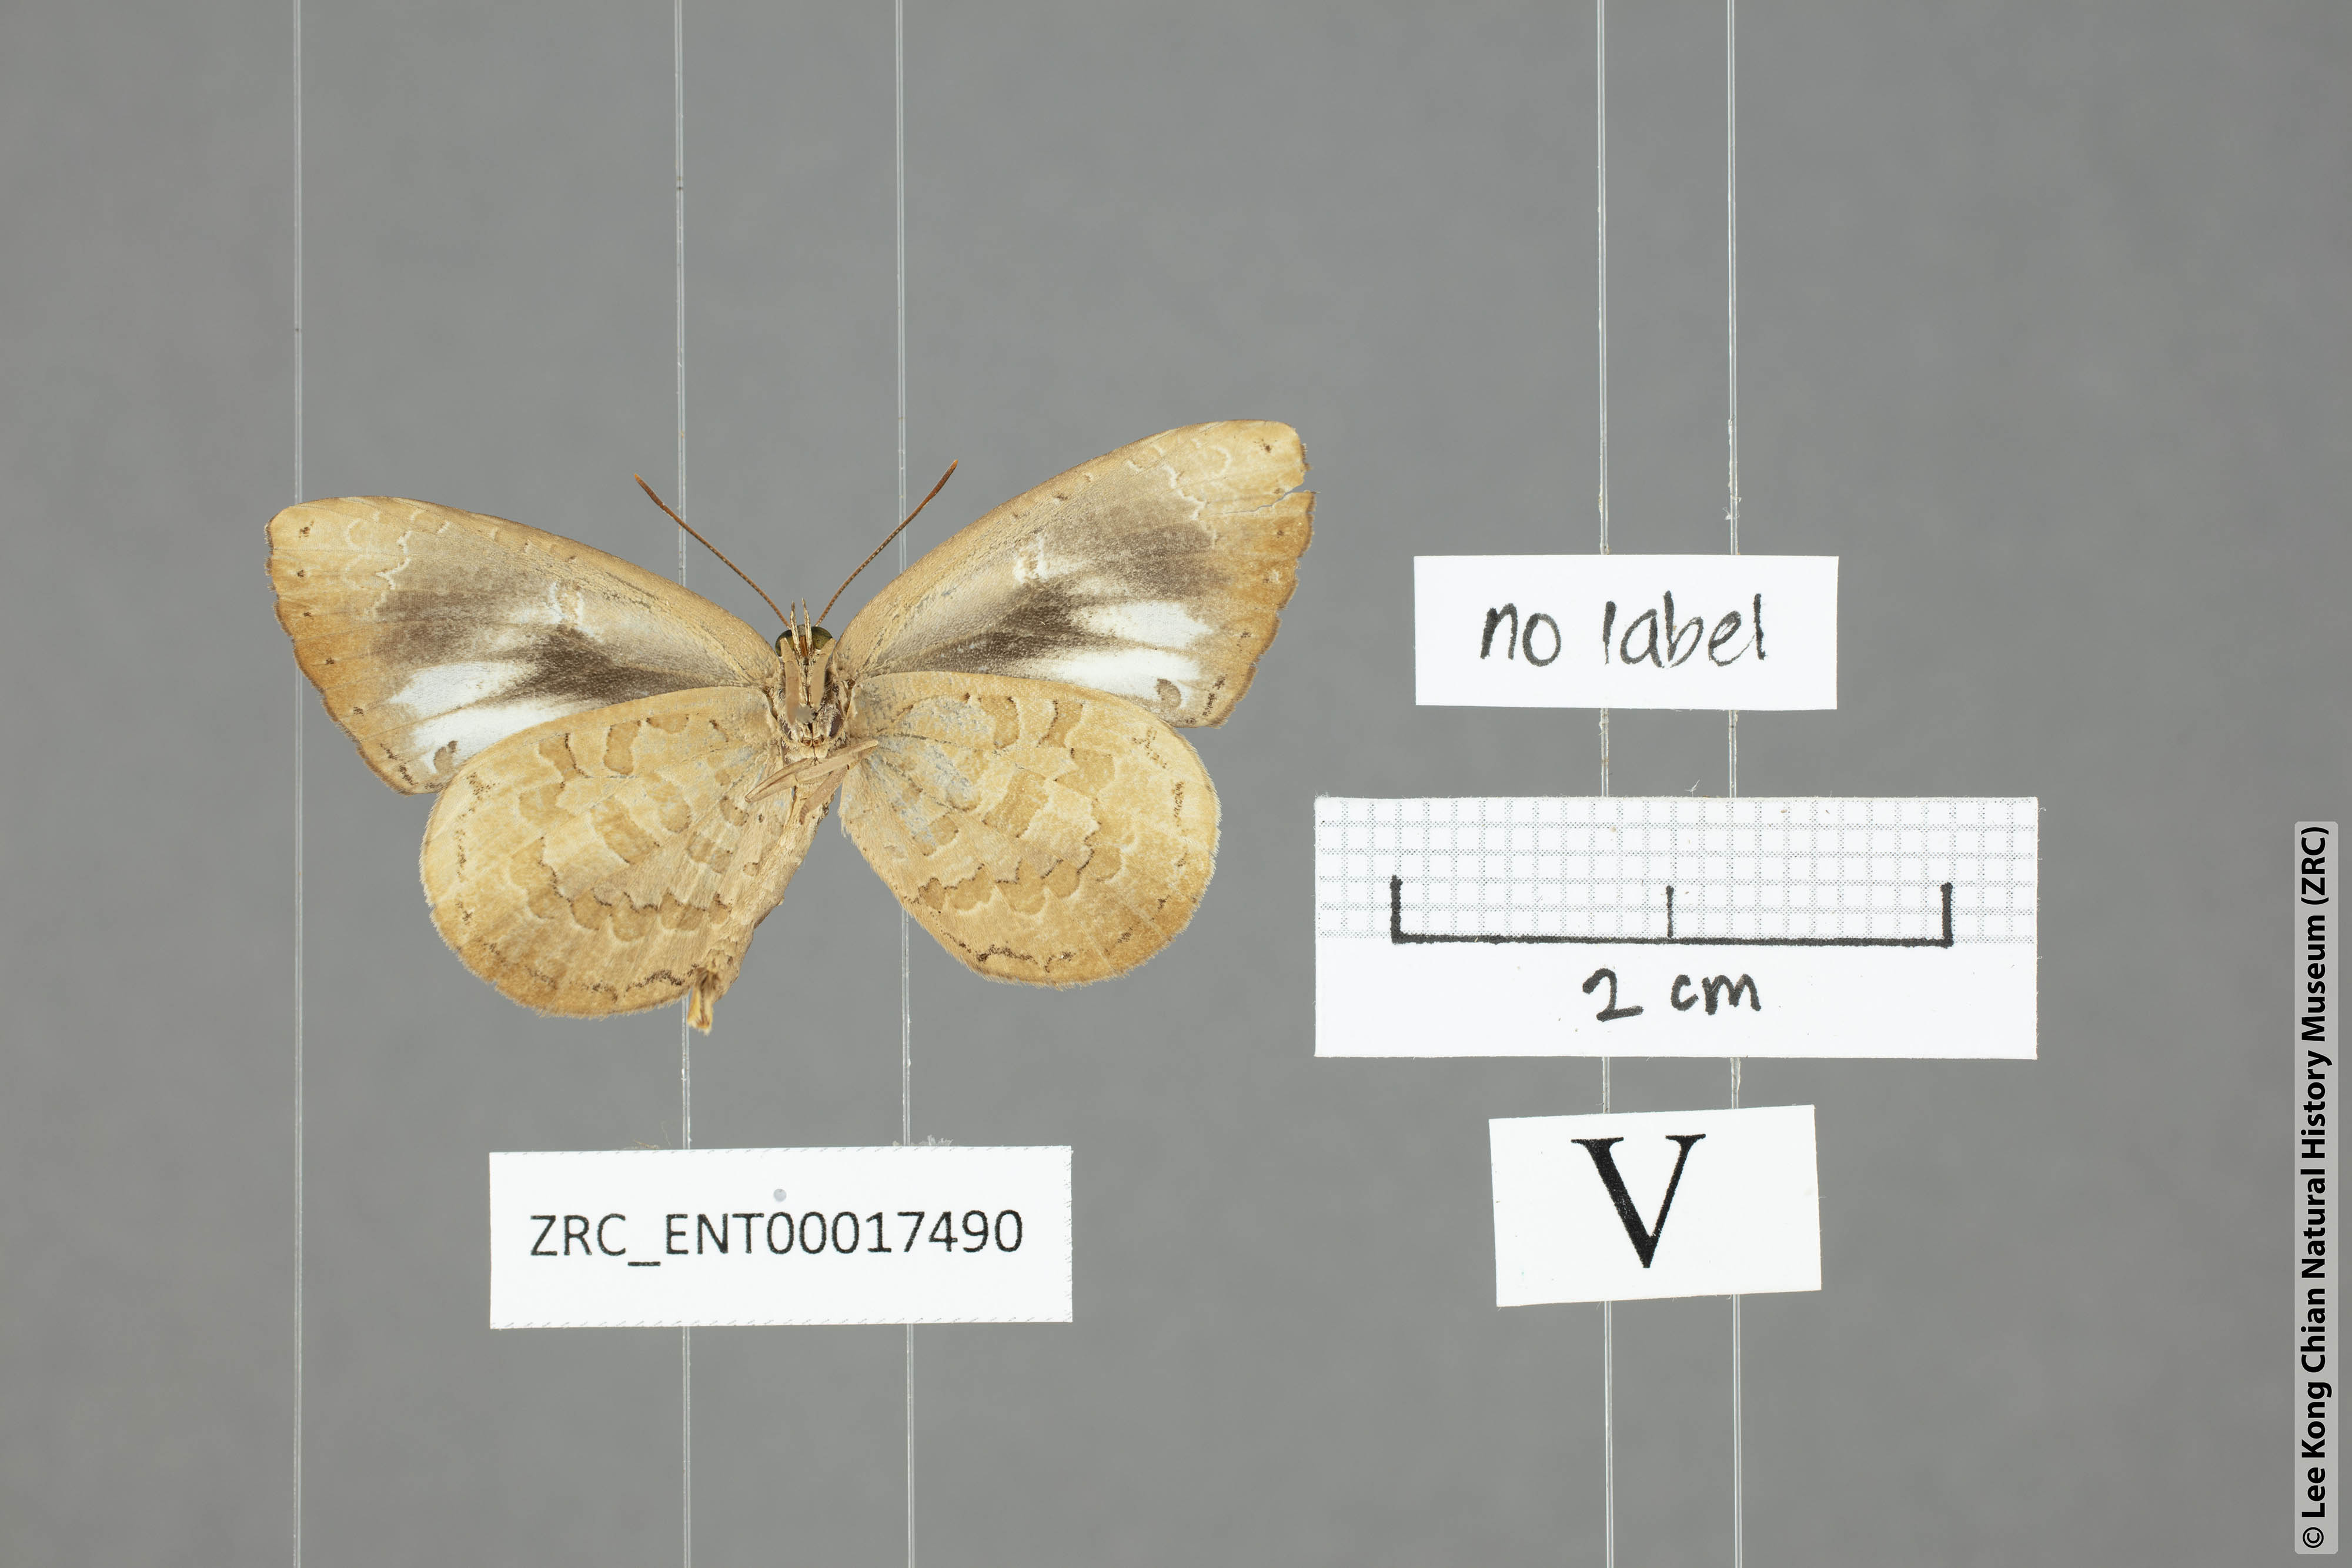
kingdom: Animalia
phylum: Arthropoda
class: Insecta
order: Lepidoptera
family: Lycaenidae
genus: Miletus
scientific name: Miletus symethus
